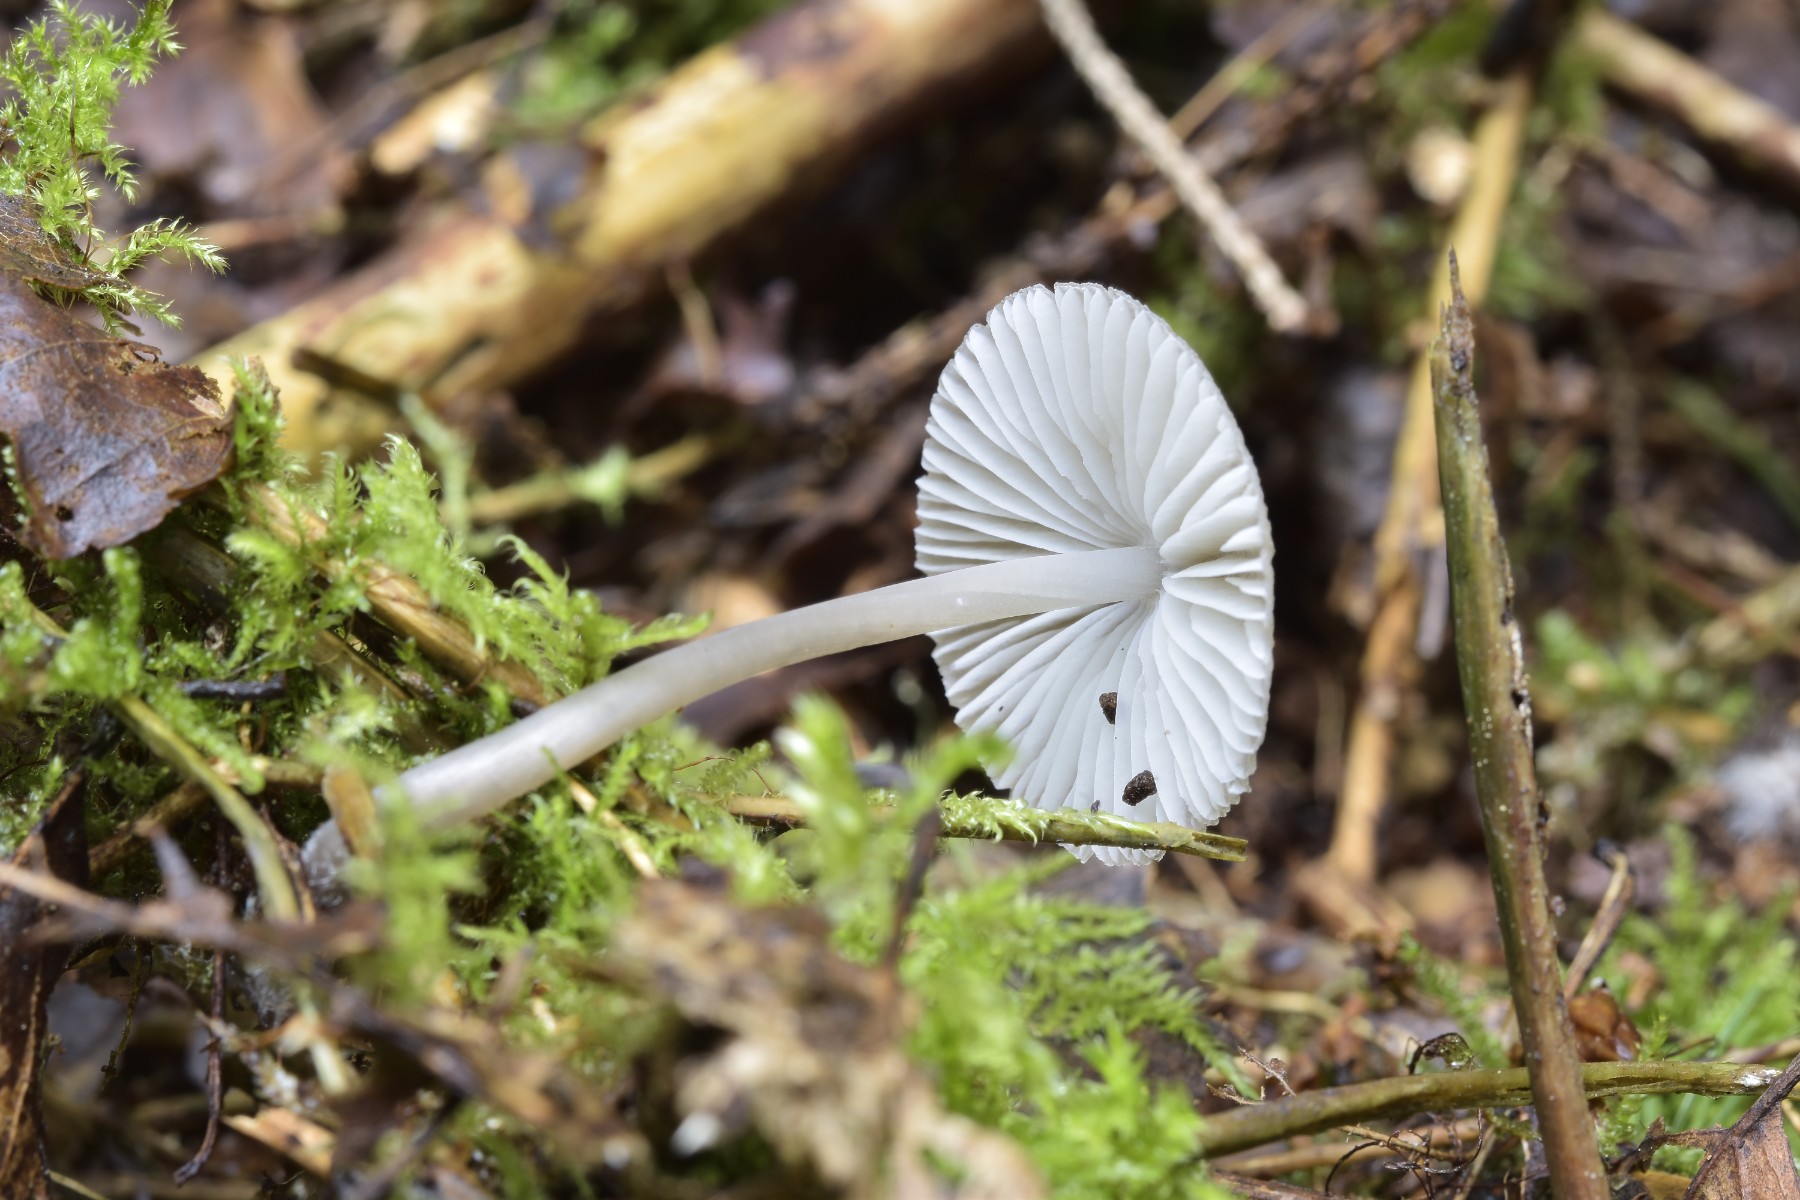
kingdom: Fungi
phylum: Basidiomycota
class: Agaricomycetes
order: Agaricales
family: Mycenaceae
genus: Mycena
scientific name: Mycena abramsii
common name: sommer-huesvamp
